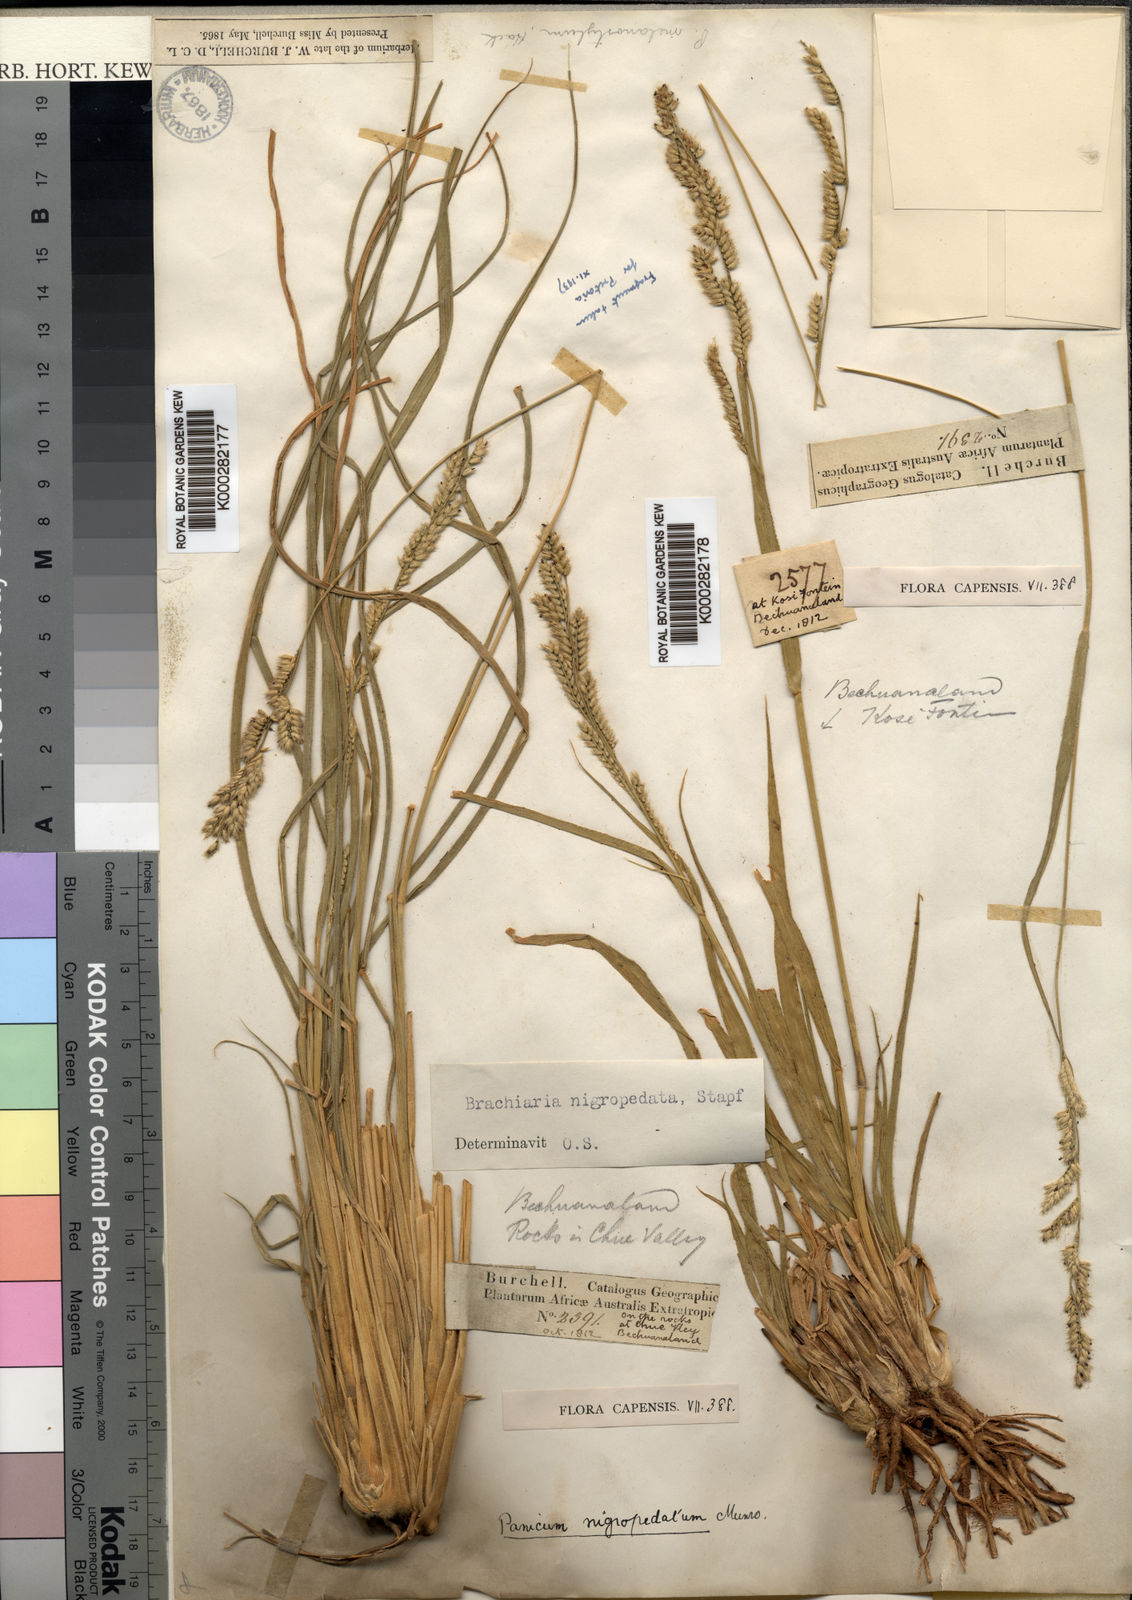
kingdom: Plantae
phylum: Tracheophyta
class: Liliopsida
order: Poales
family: Poaceae
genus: Urochloa
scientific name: Urochloa nigropedata
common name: Spotted signal grass
